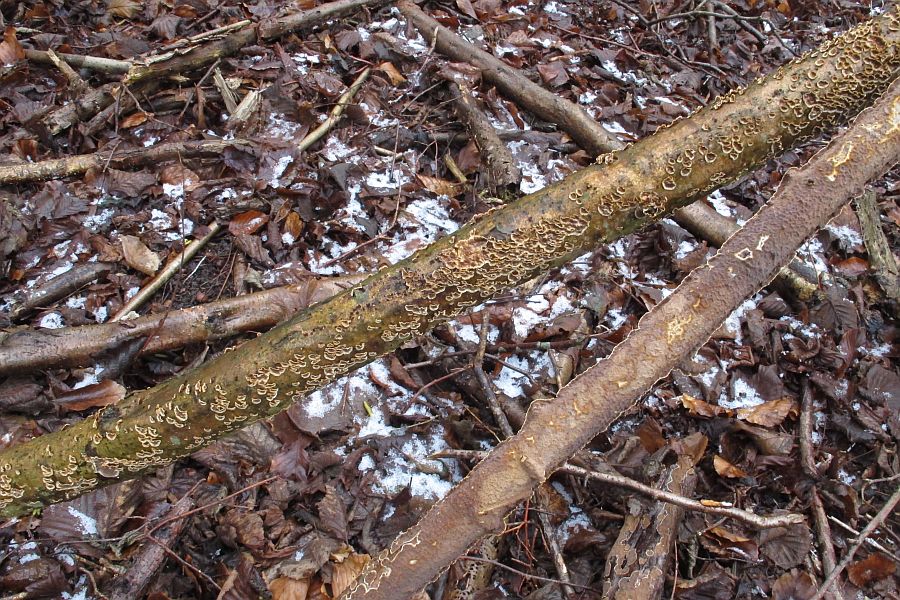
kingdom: Fungi
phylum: Basidiomycota
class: Agaricomycetes
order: Hymenochaetales
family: Hymenochaetaceae
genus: Hydnoporia
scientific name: Hydnoporia tabacina
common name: tobaksbrun ruslædersvamp
